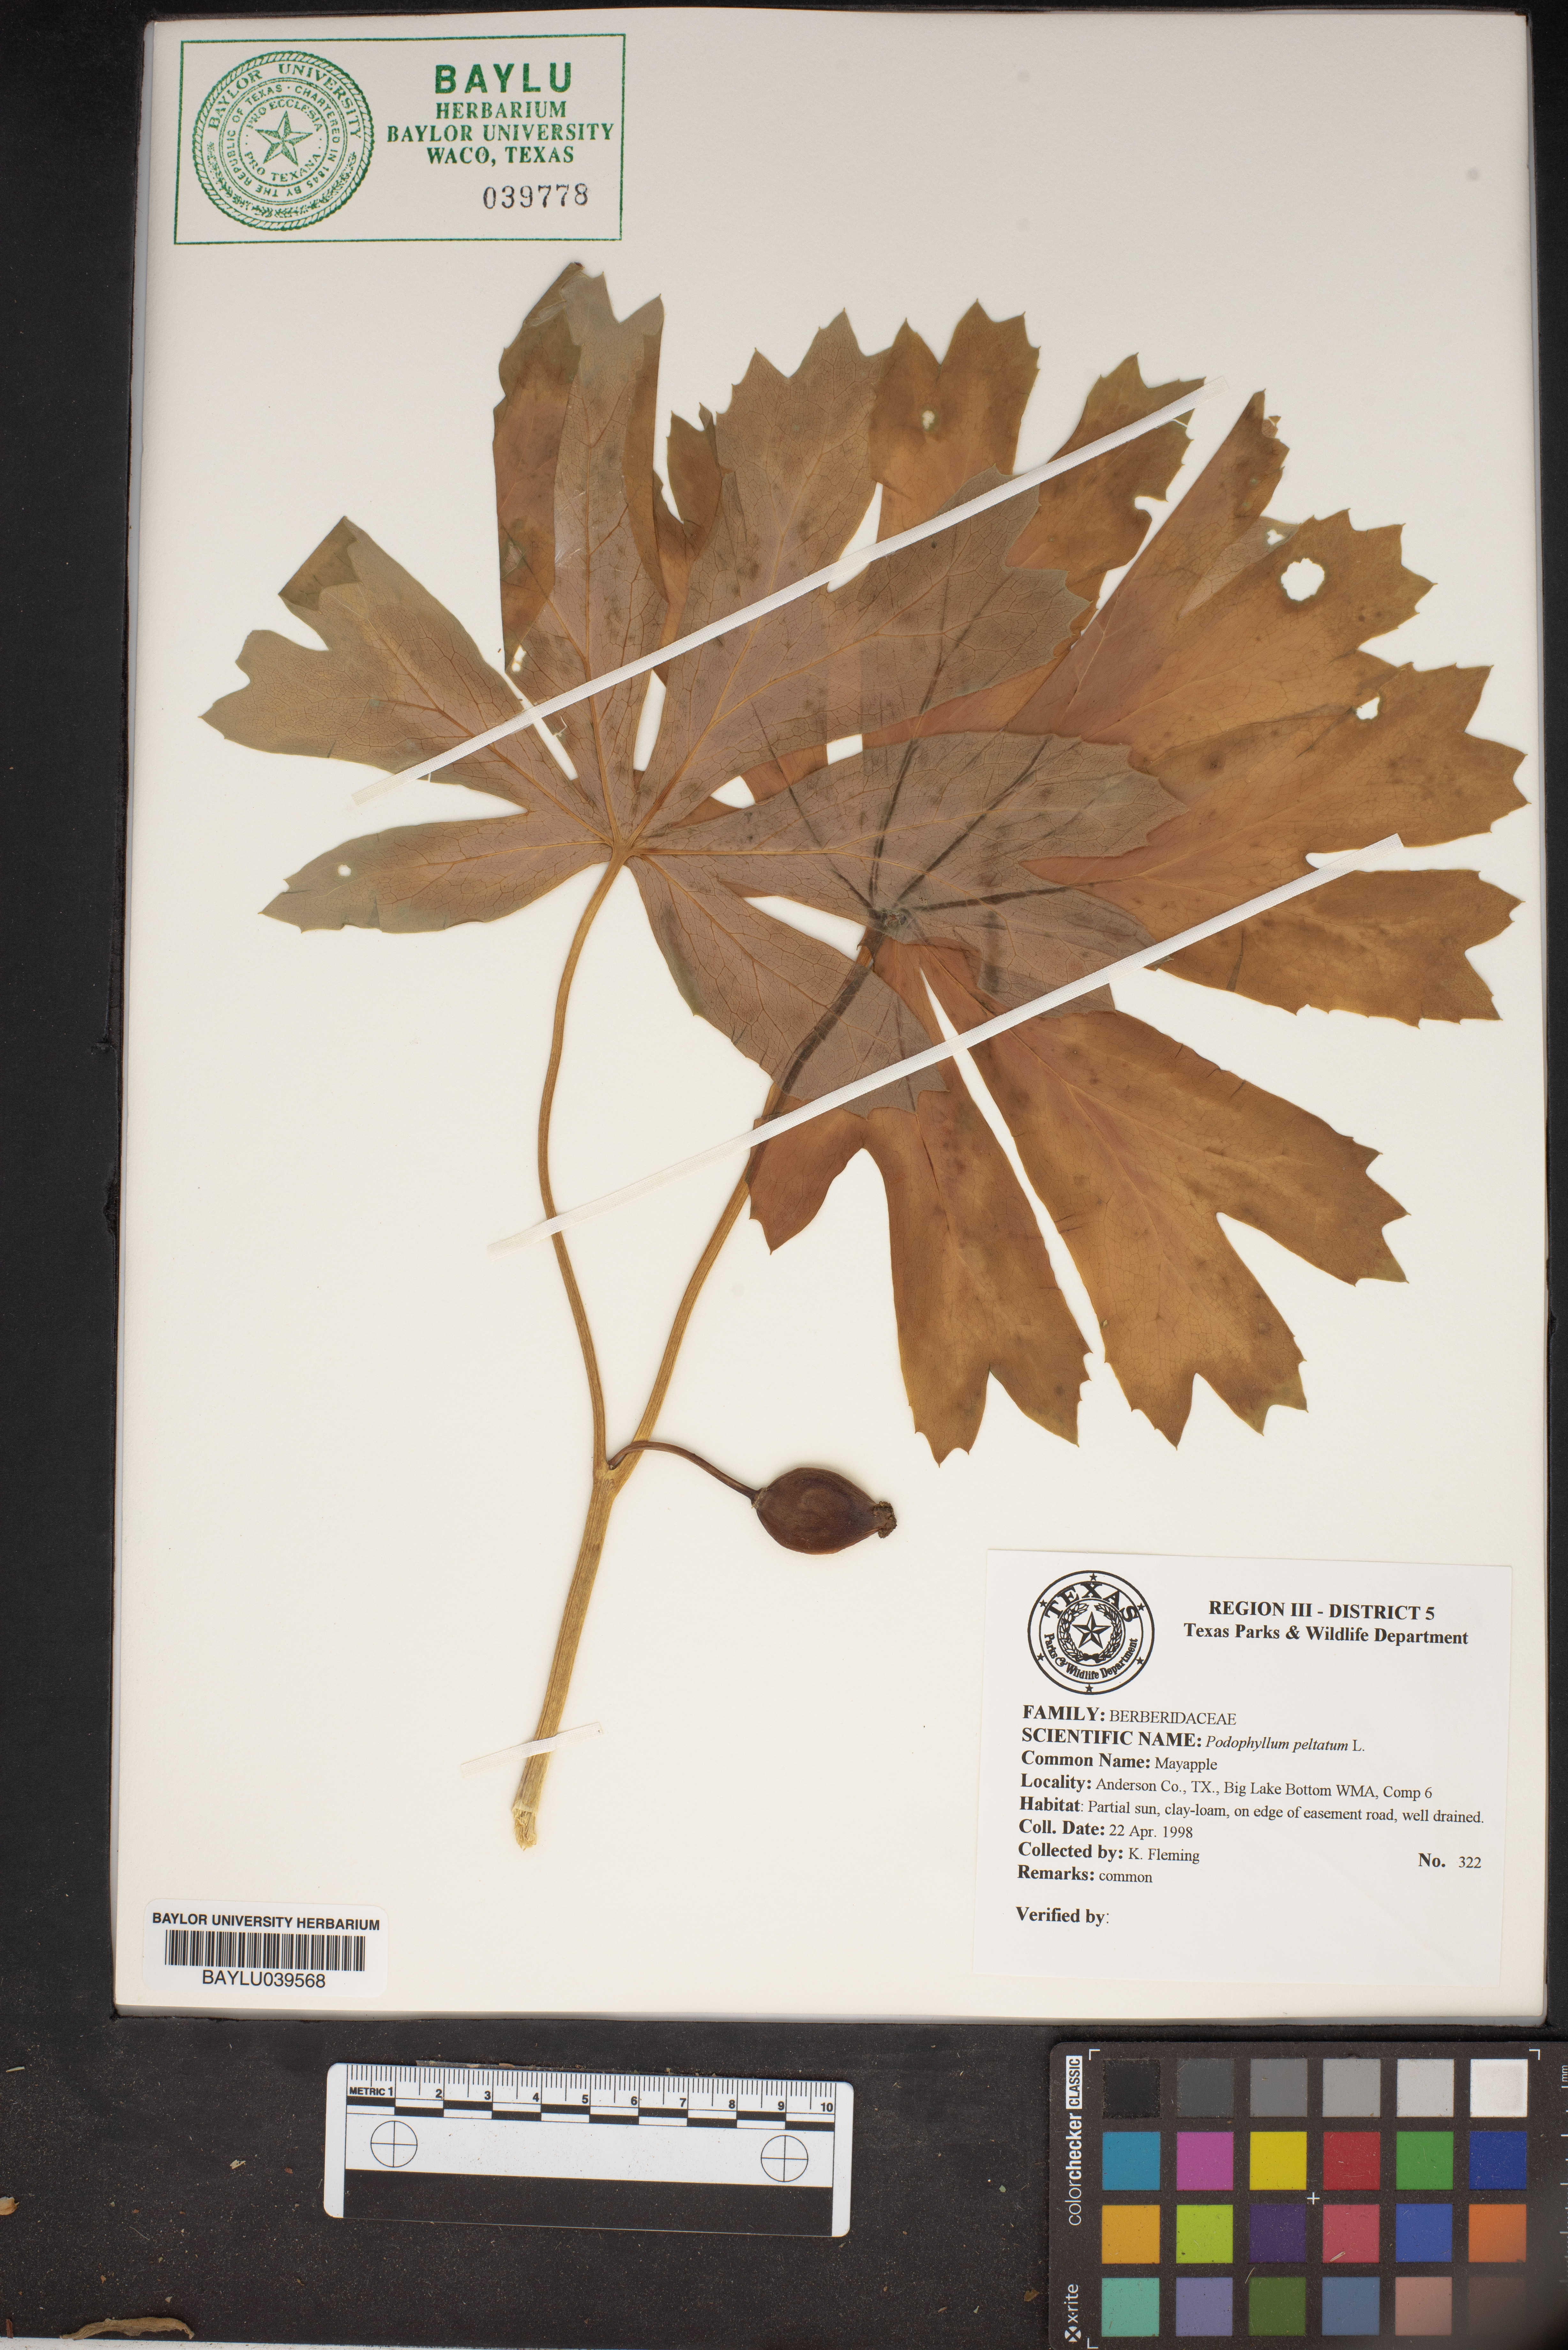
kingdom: Plantae
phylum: Tracheophyta
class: Magnoliopsida
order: Ranunculales
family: Berberidaceae
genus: Podophyllum
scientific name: Podophyllum peltatum
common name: Wild mandrake
